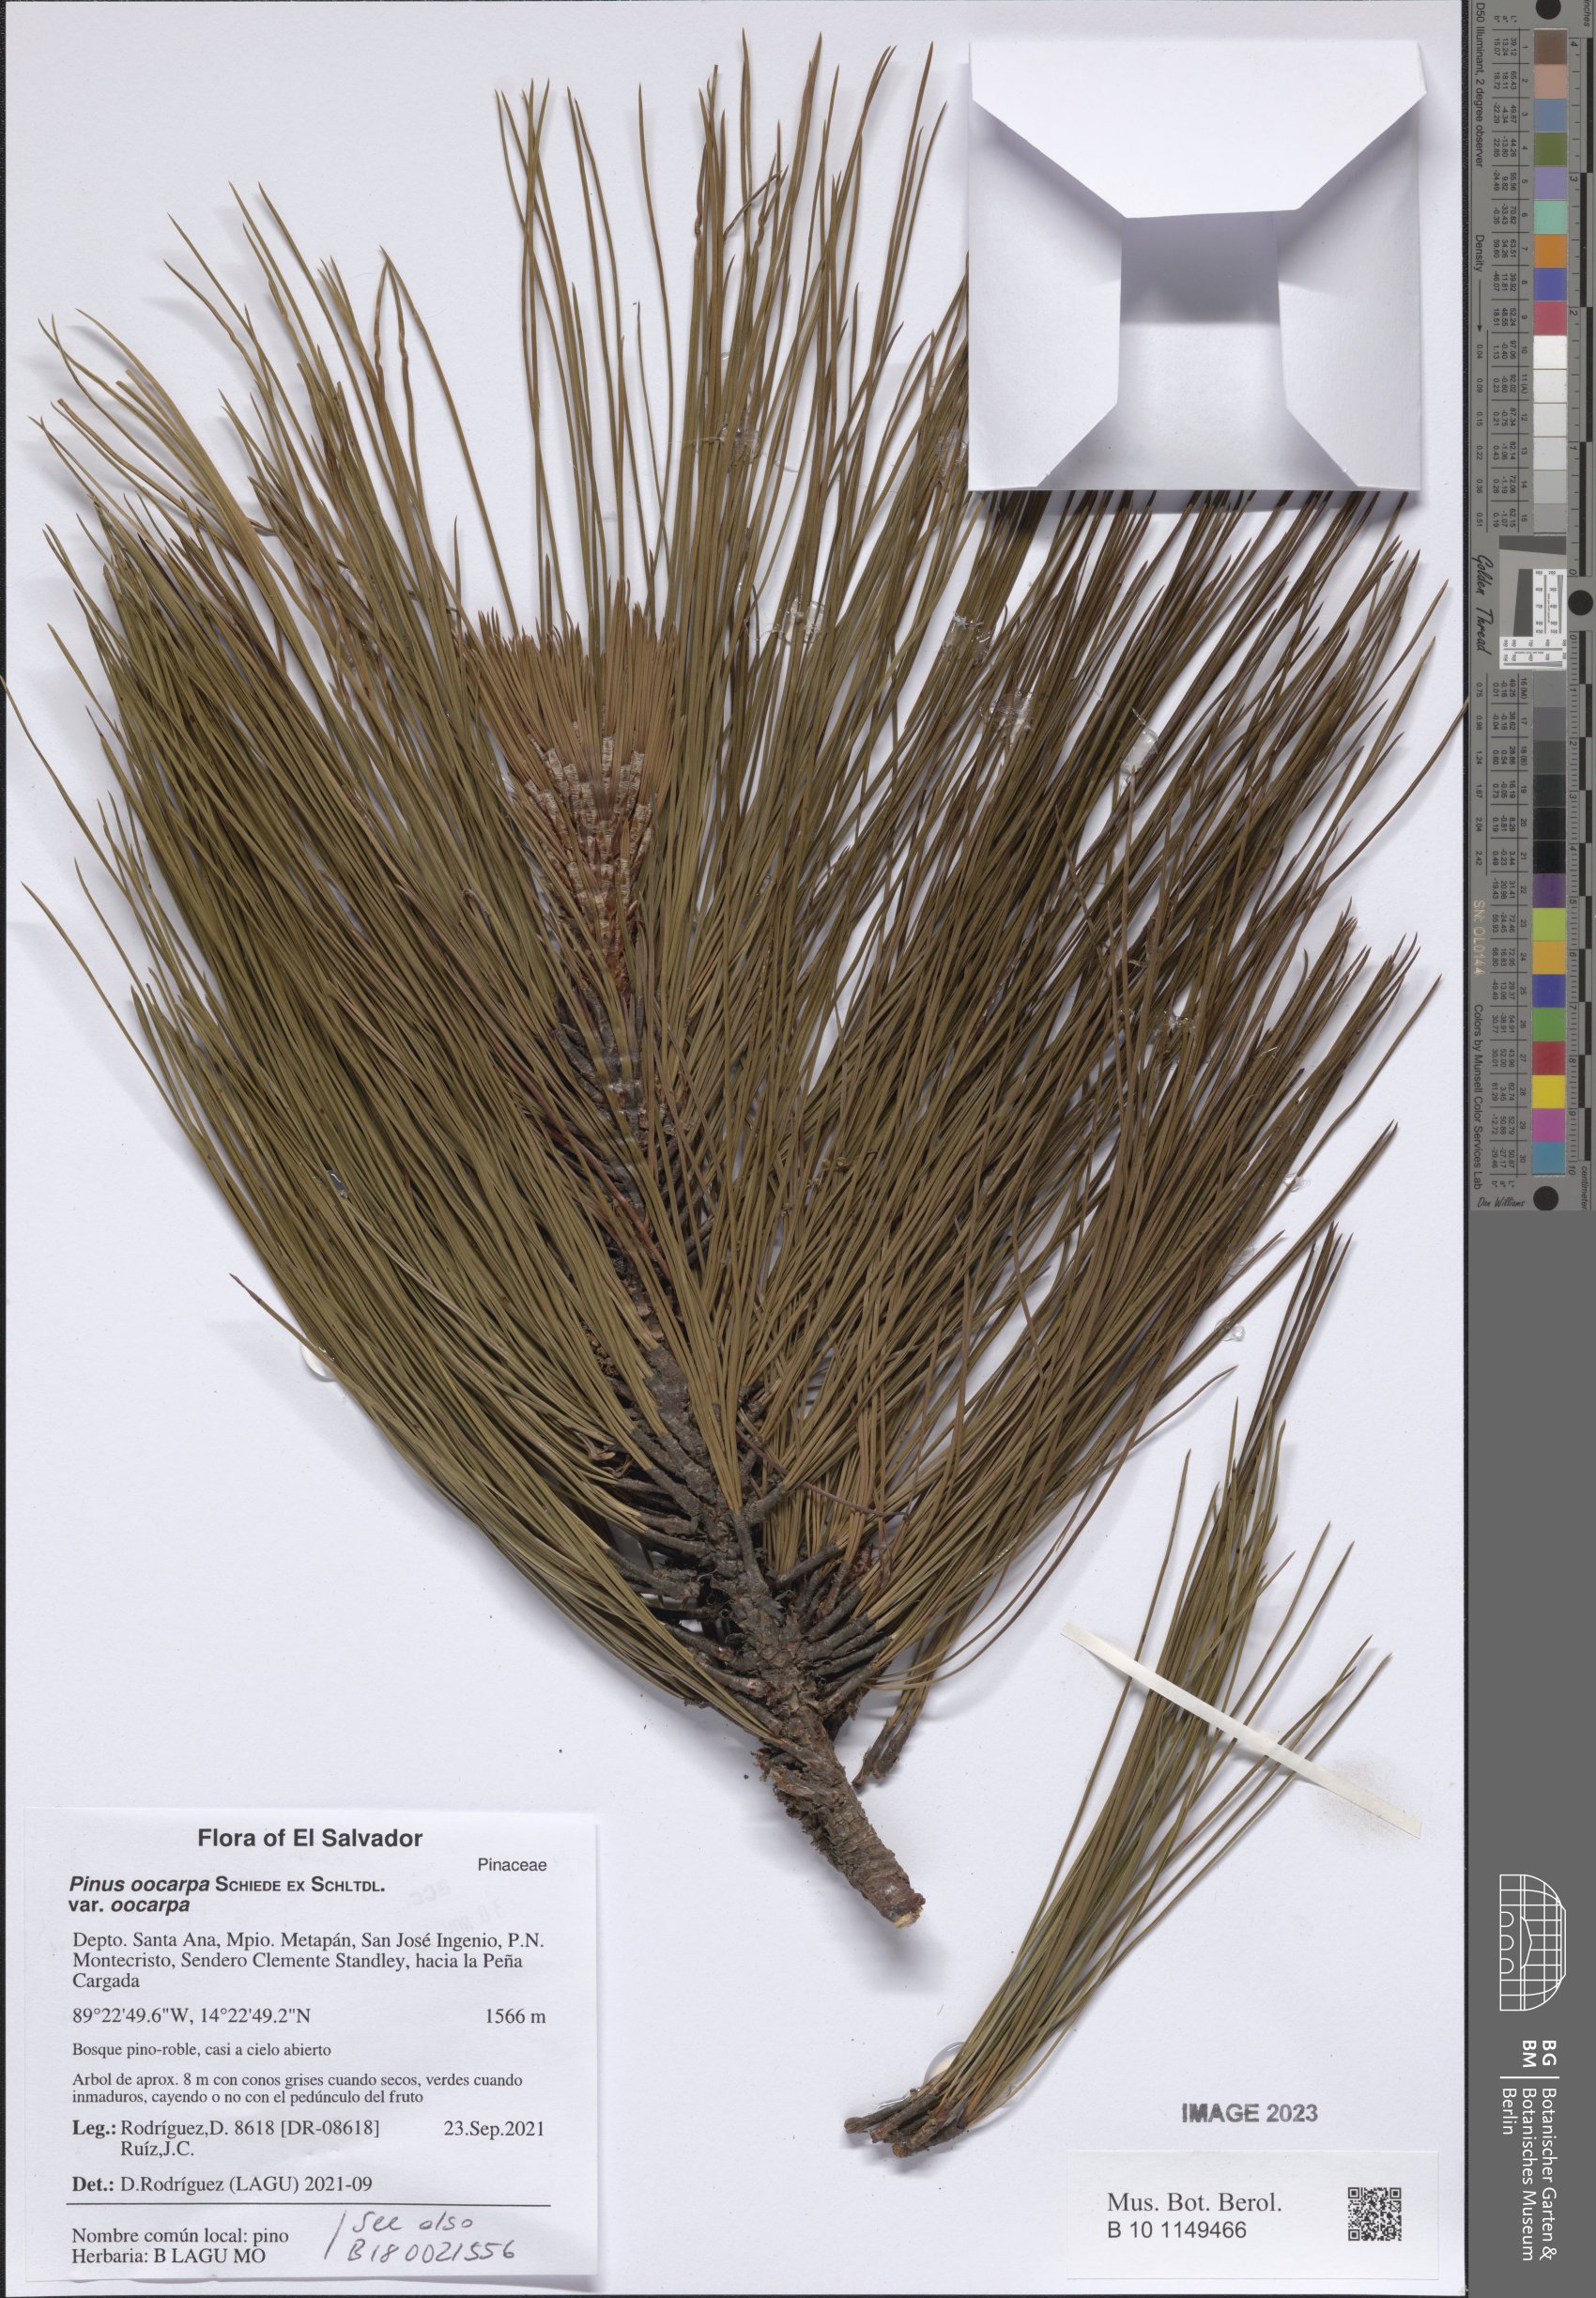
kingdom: Plantae
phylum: Tracheophyta
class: Pinopsida
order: Pinales
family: Pinaceae
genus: Pinus
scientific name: Pinus oocarpa
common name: Egg-cone pine
